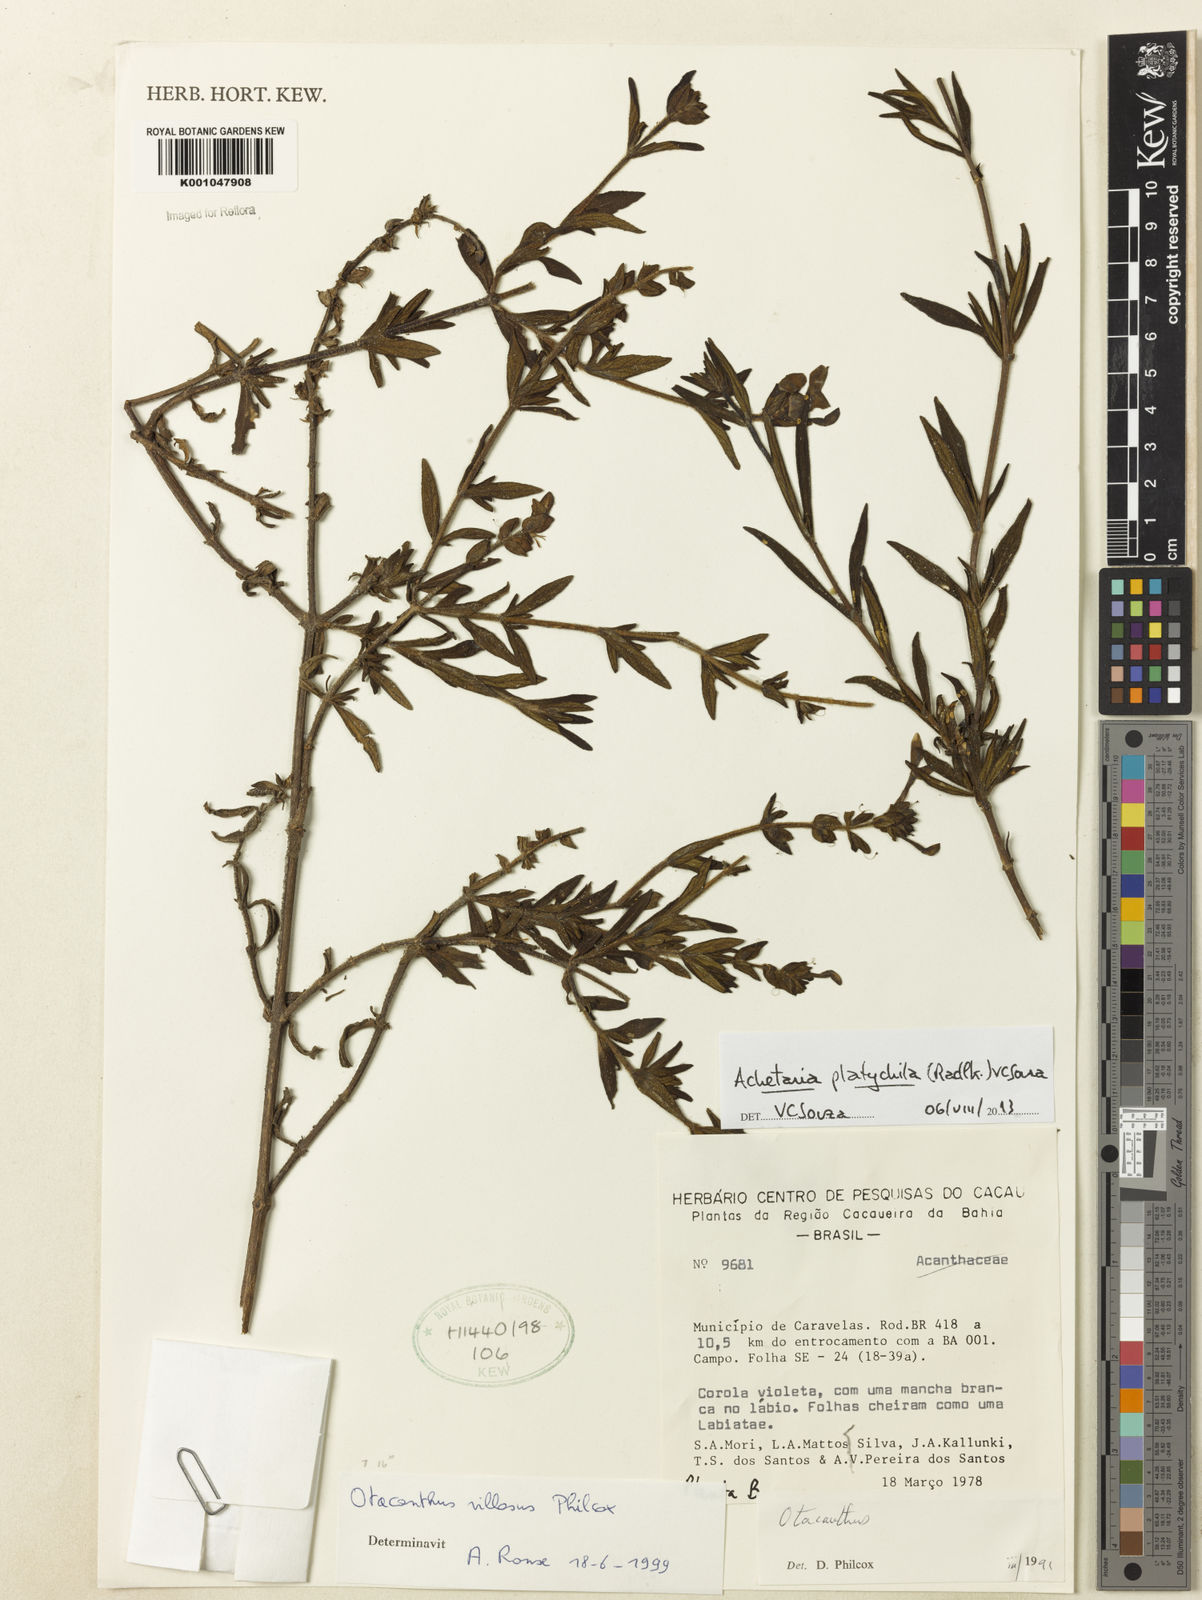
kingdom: Plantae
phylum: Tracheophyta
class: Magnoliopsida
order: Lamiales
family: Plantaginaceae
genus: Matourea
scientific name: Matourea platychila
